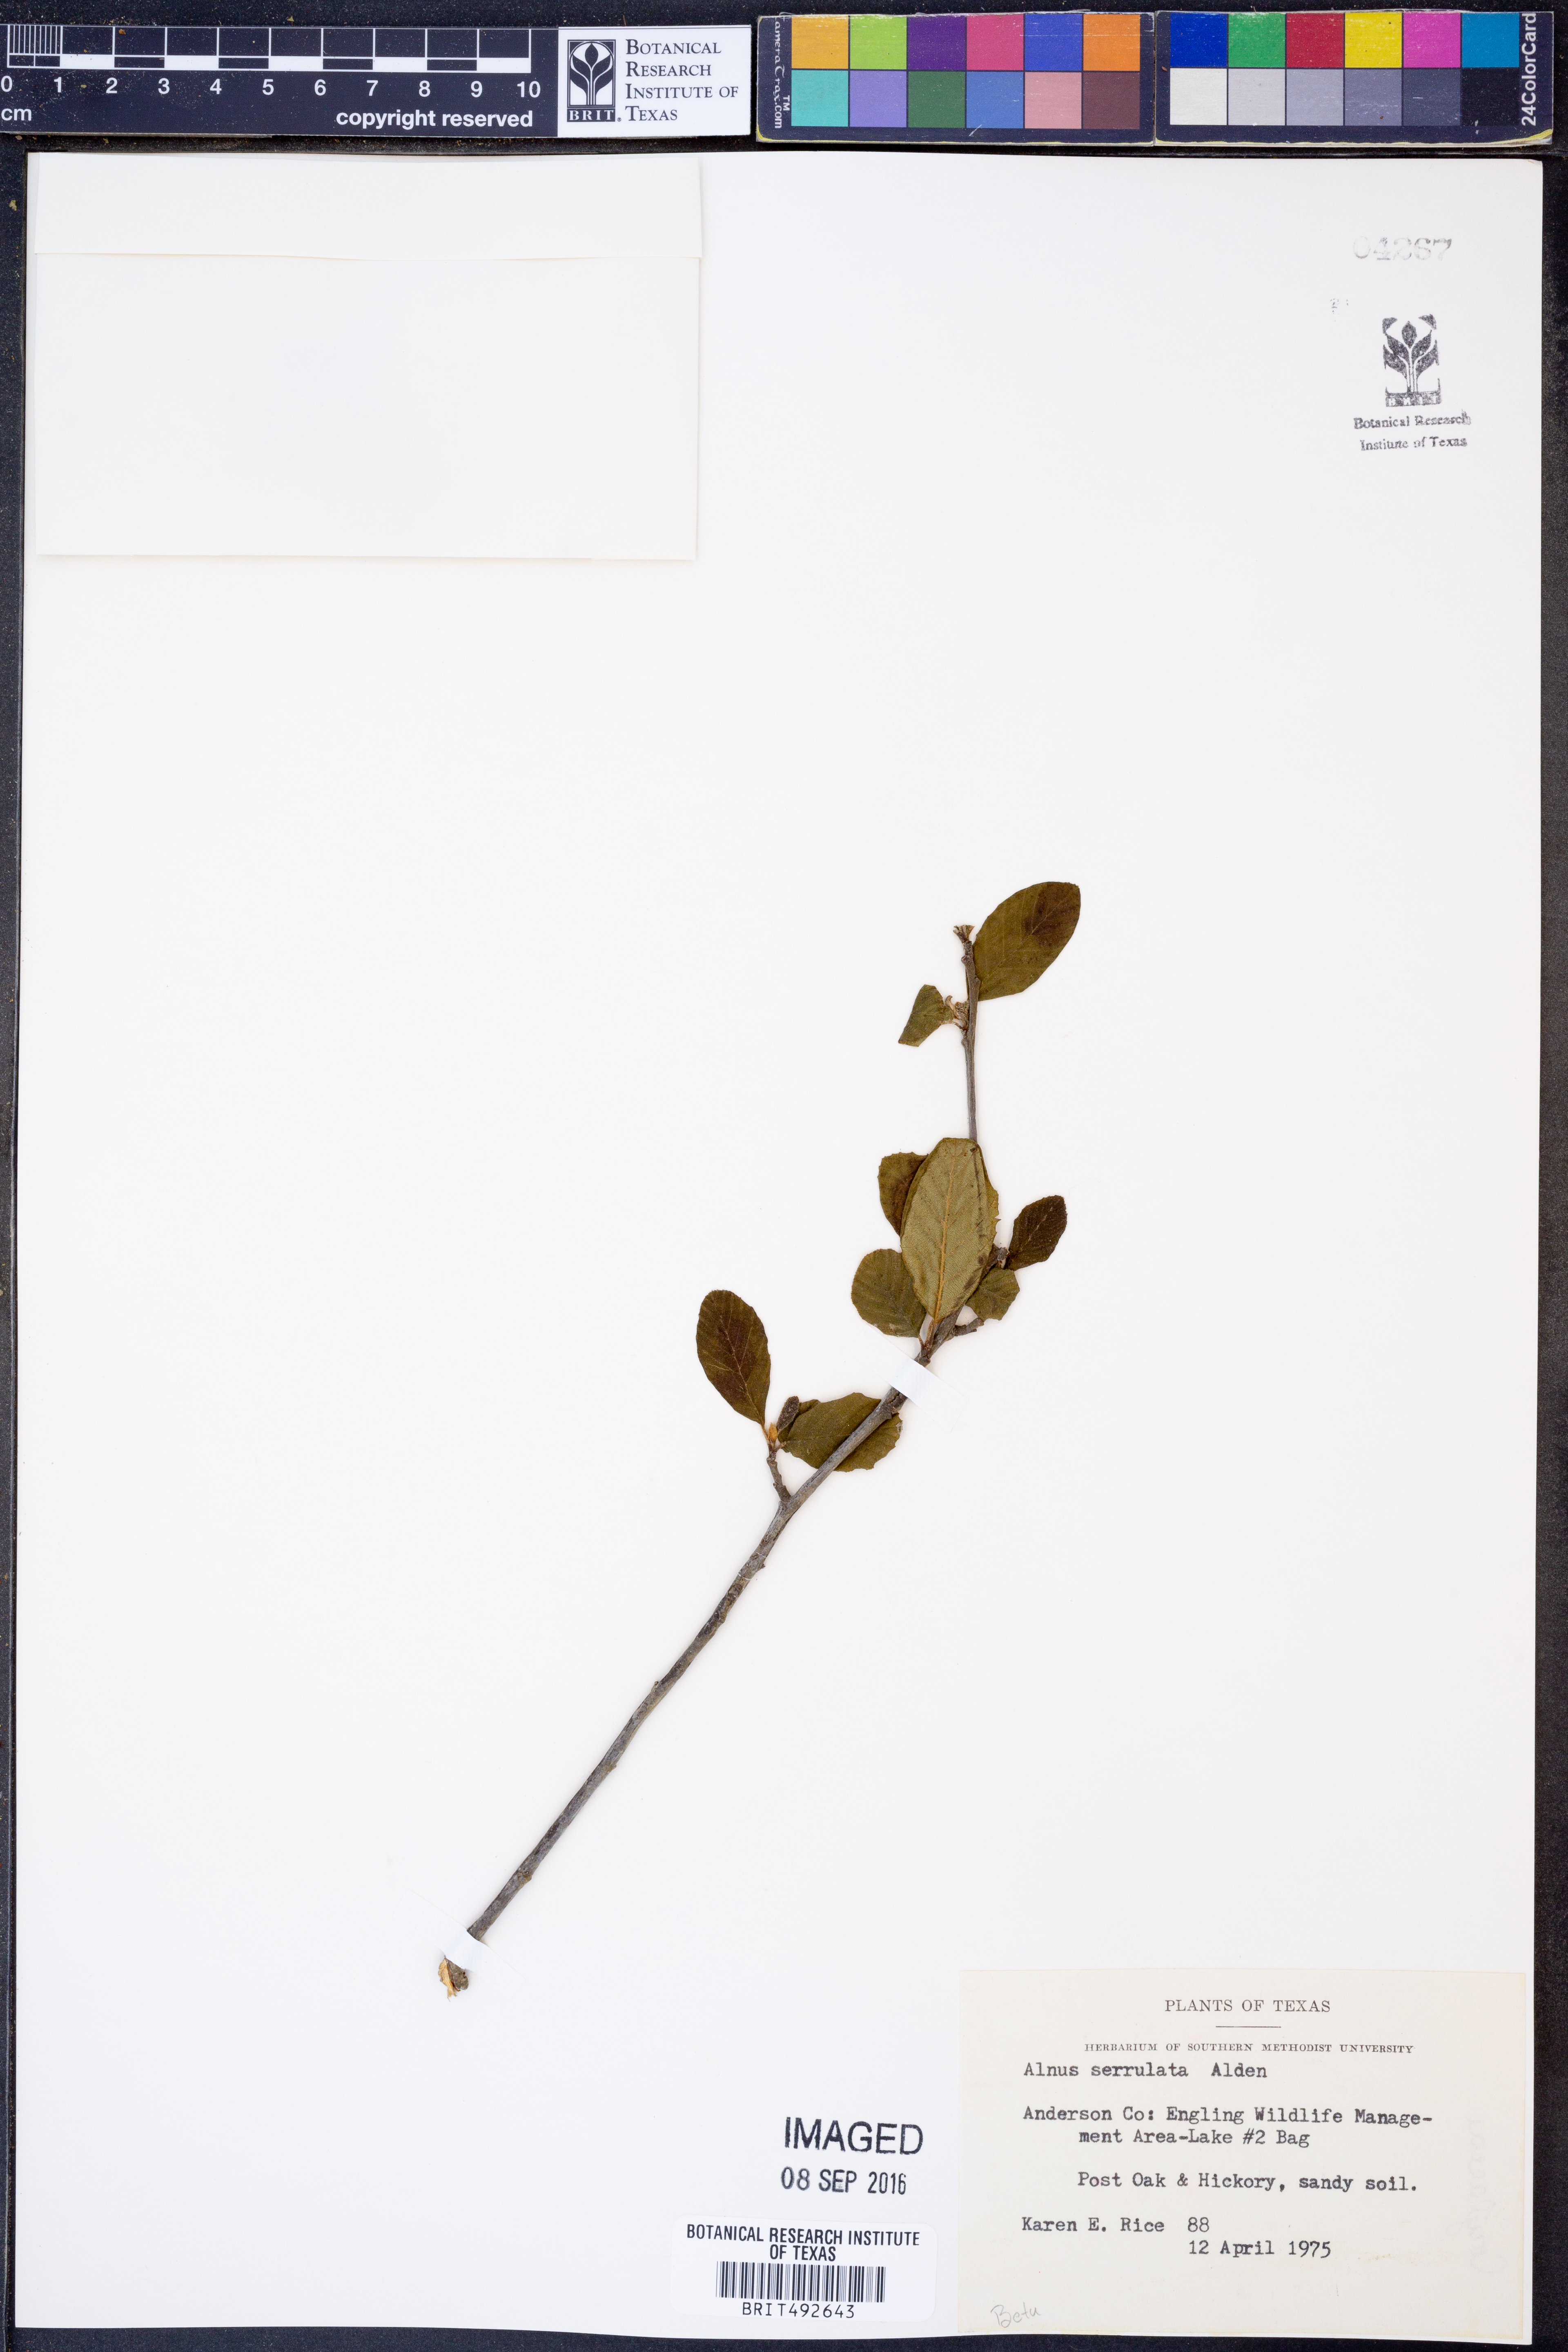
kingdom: Plantae
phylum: Tracheophyta
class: Magnoliopsida
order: Fagales
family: Betulaceae
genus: Alnus
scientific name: Alnus serrulata
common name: Hazel alder
